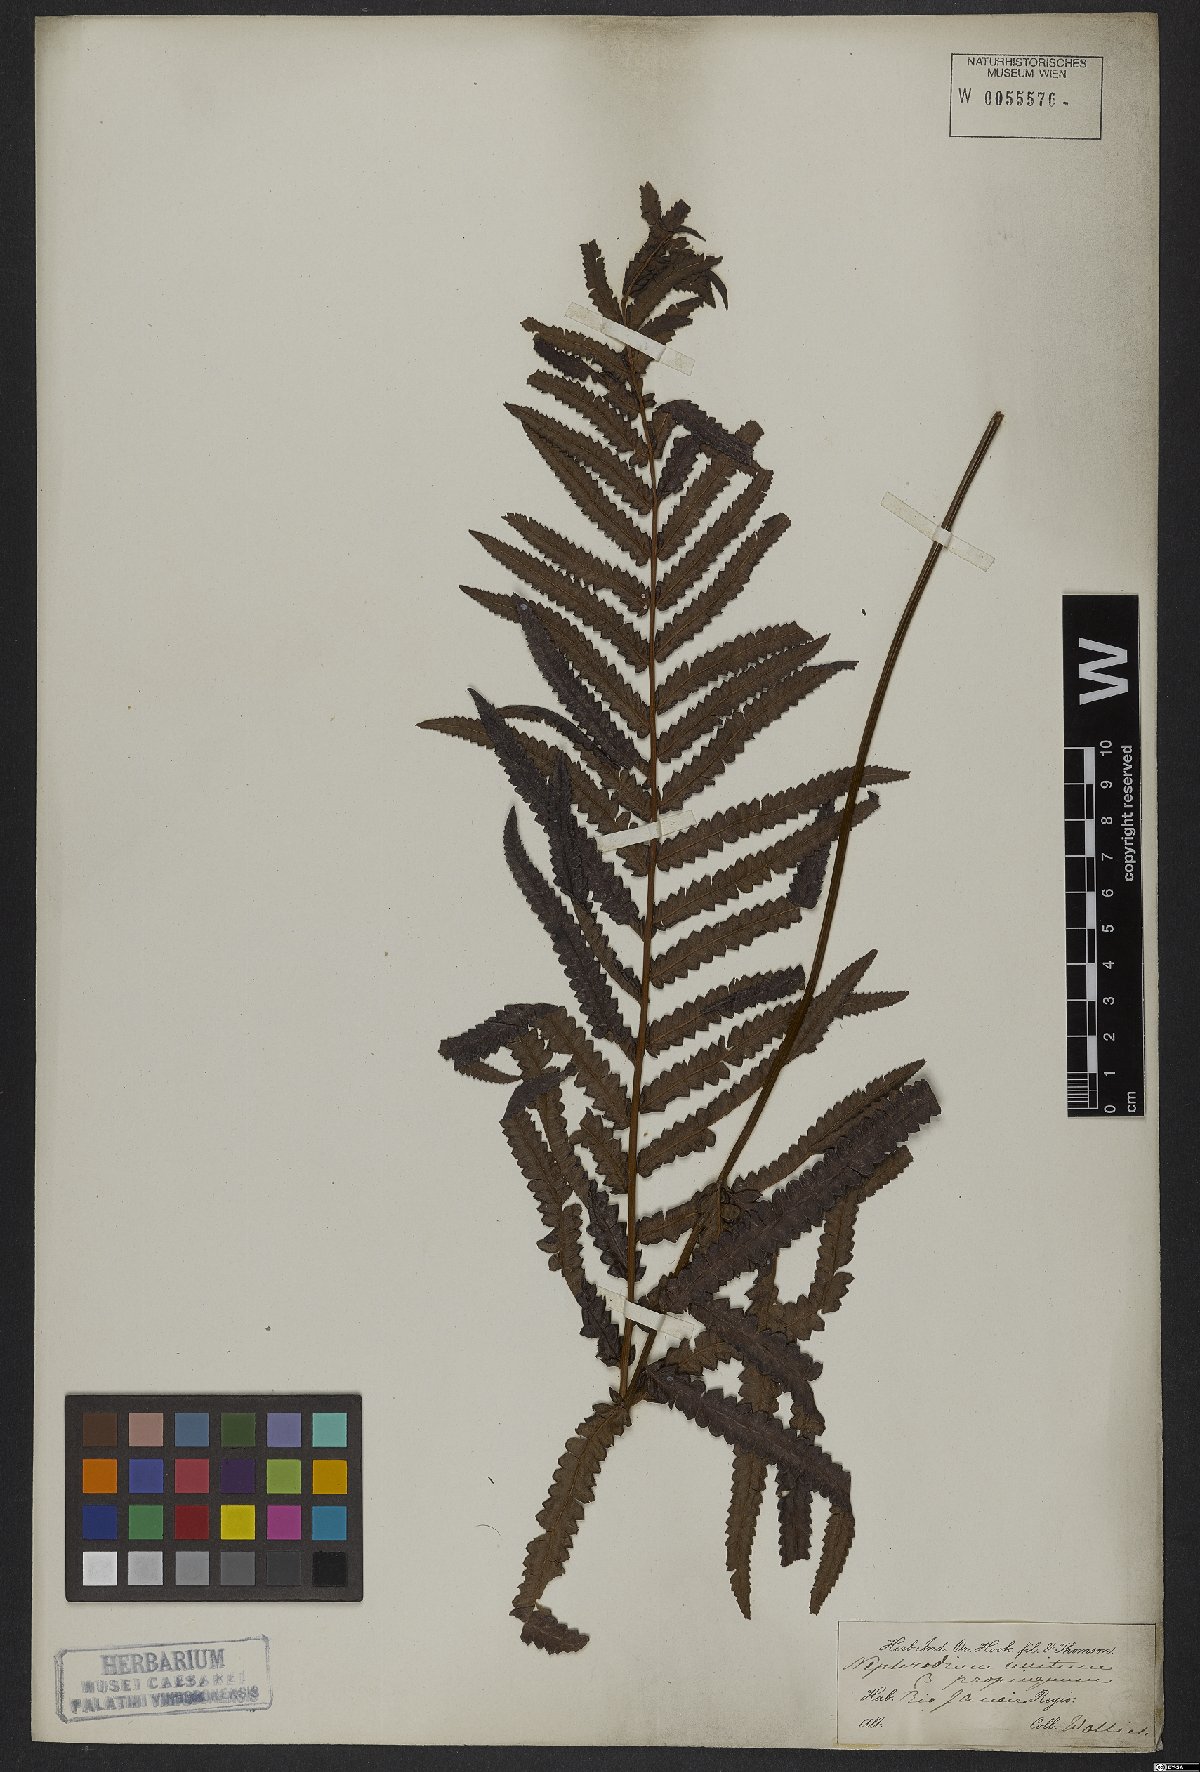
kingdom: Plantae
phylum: Tracheophyta
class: Polypodiopsida
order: Polypodiales
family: Thelypteridaceae
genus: Cyclosorus
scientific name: Cyclosorus interruptus
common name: Neke fern
